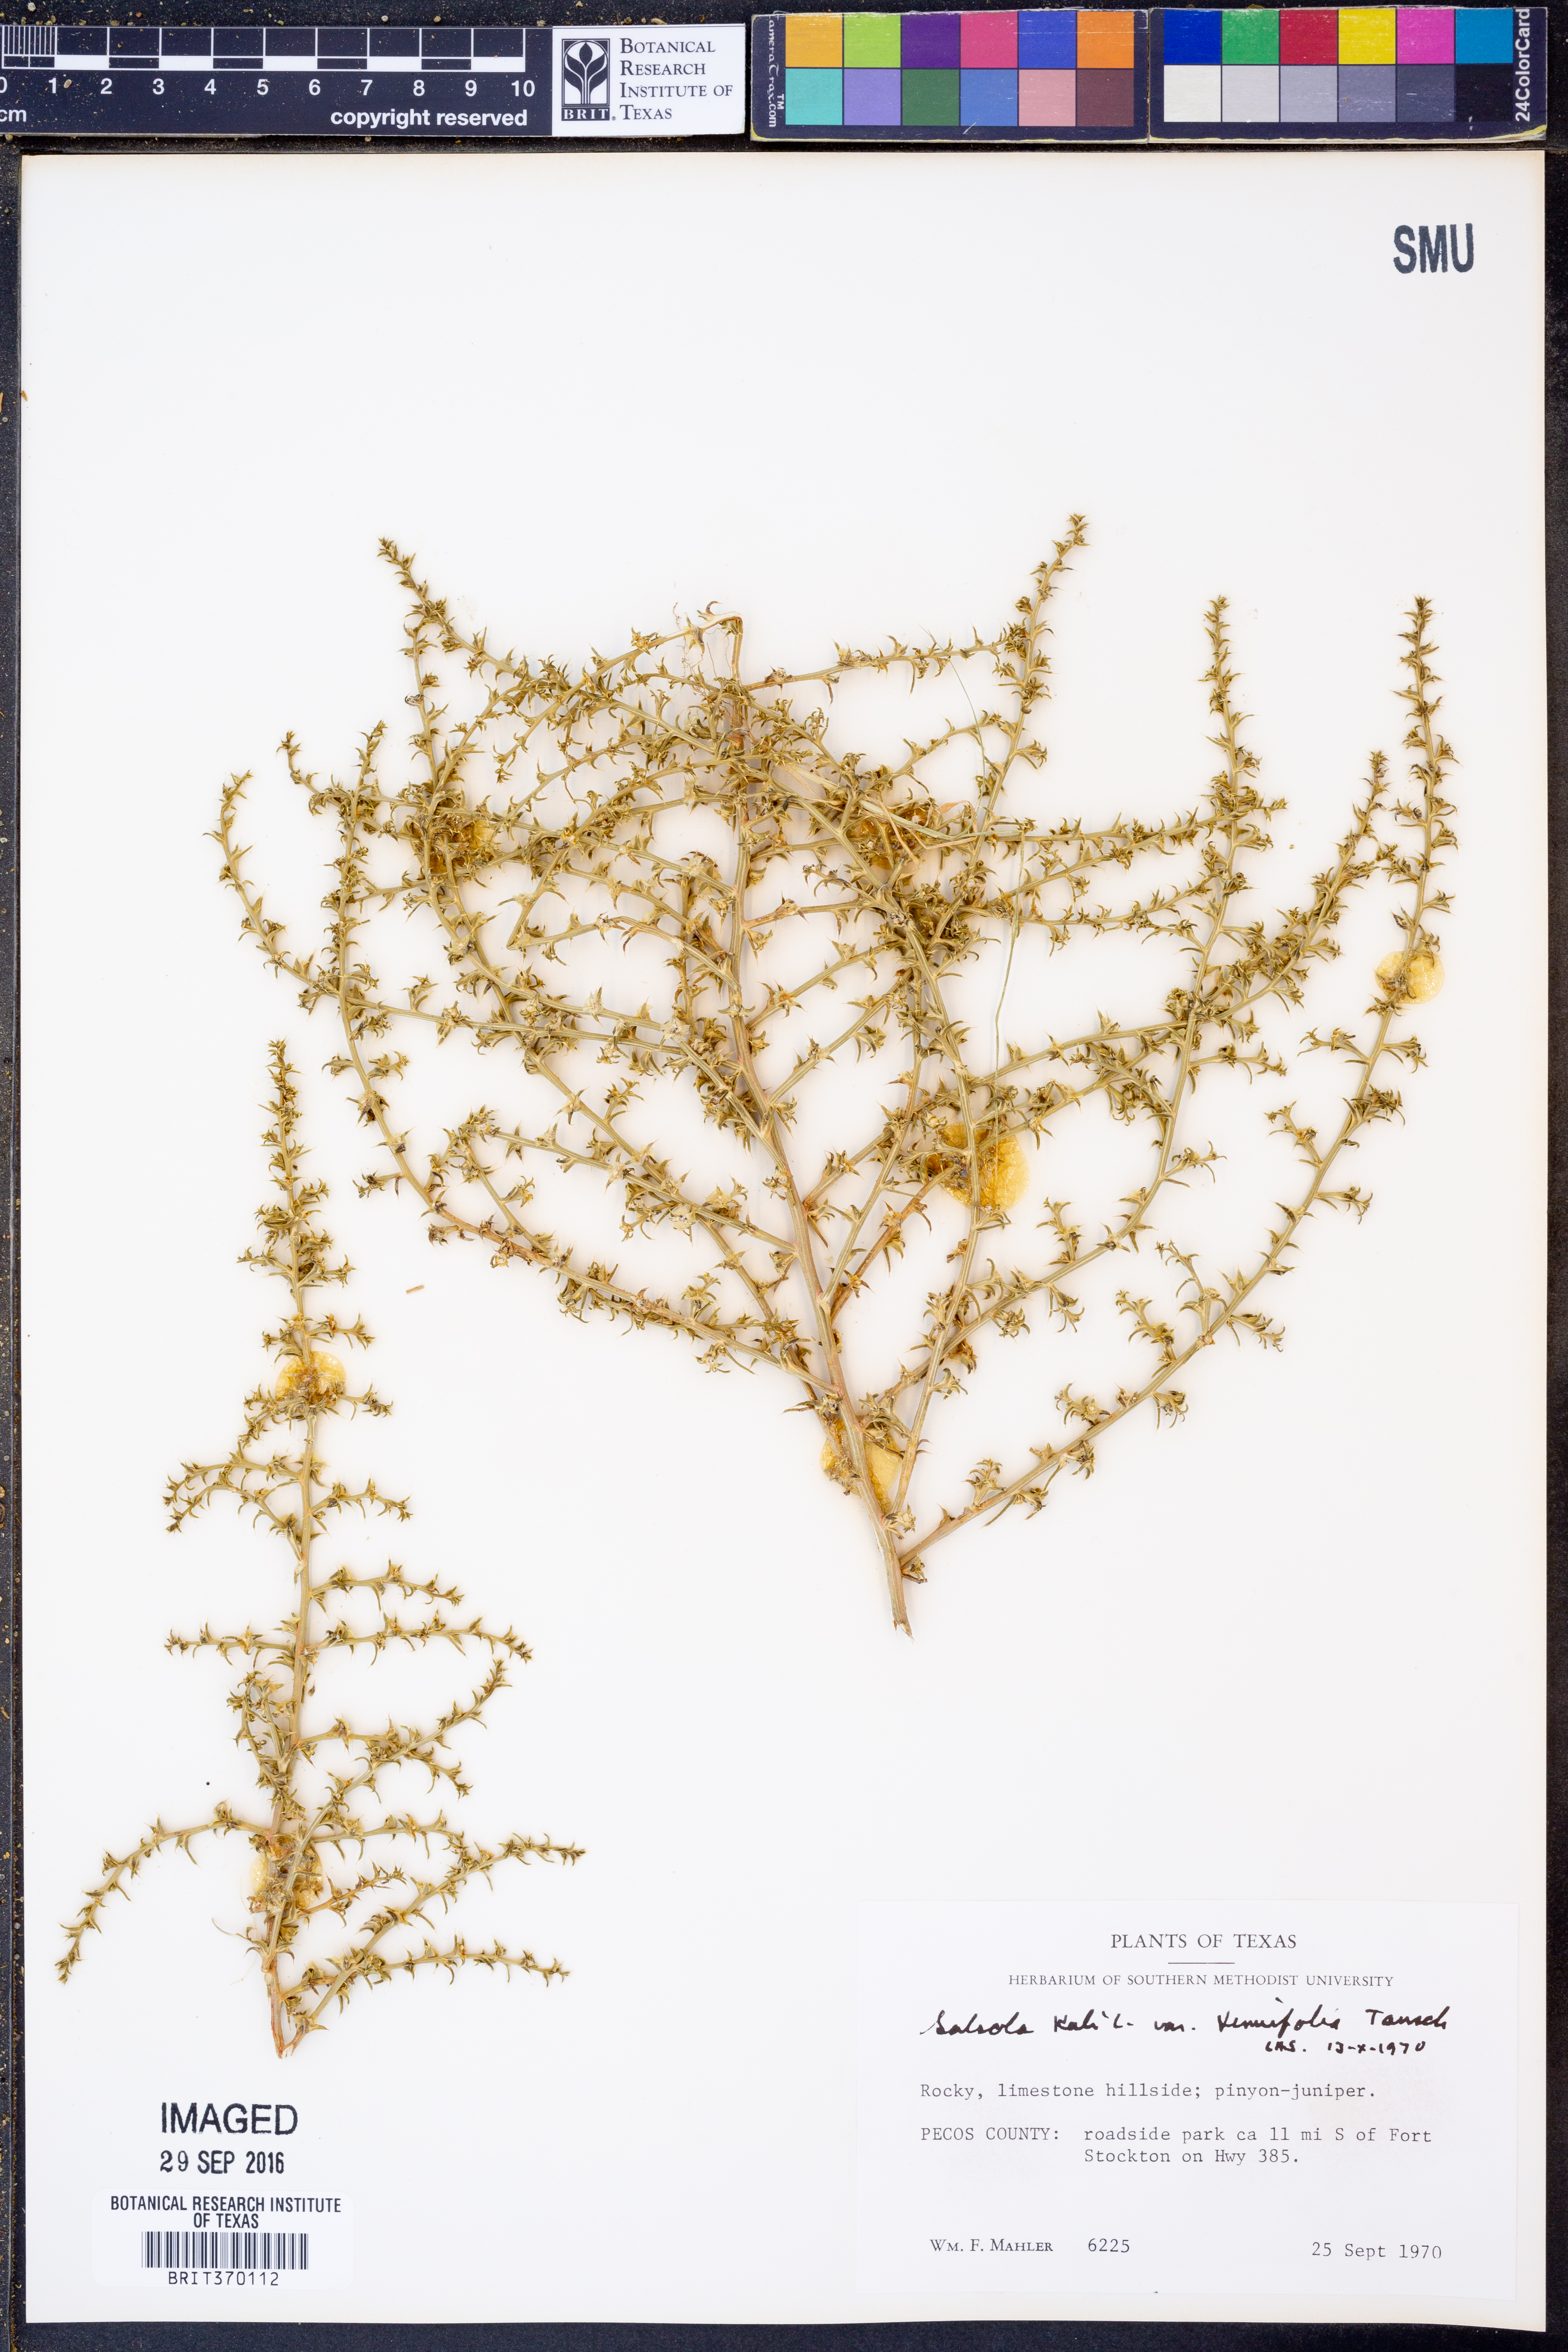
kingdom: Plantae
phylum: Tracheophyta
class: Magnoliopsida
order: Caryophyllales
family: Amaranthaceae
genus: Salsola
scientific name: Salsola tragus
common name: Prickly russian thistle
